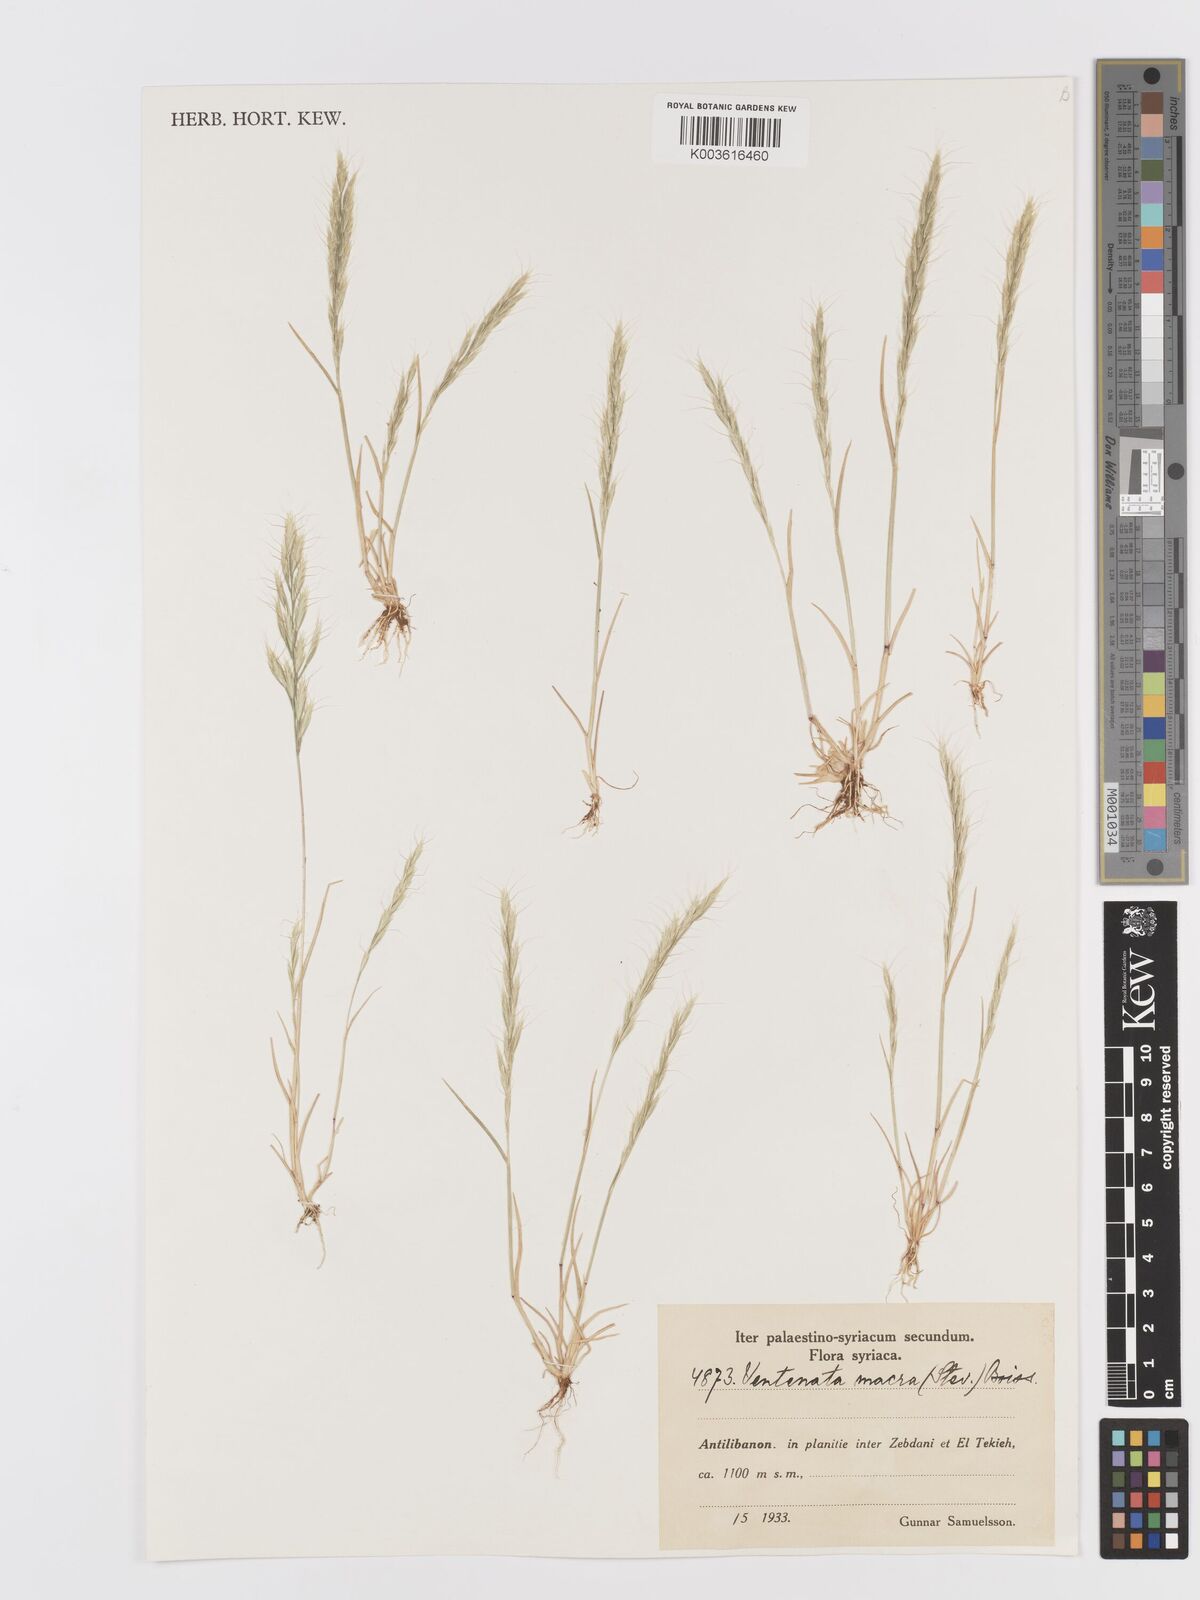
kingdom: Plantae
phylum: Tracheophyta
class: Liliopsida
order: Poales
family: Poaceae
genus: Ventenata
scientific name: Ventenata macra
